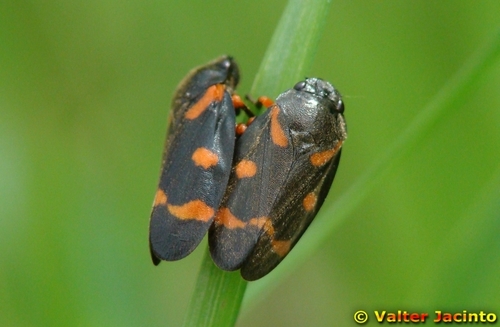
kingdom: Animalia
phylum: Arthropoda
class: Insecta
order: Hemiptera
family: Cercopidae
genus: Cercopis
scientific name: Cercopis intermedia
